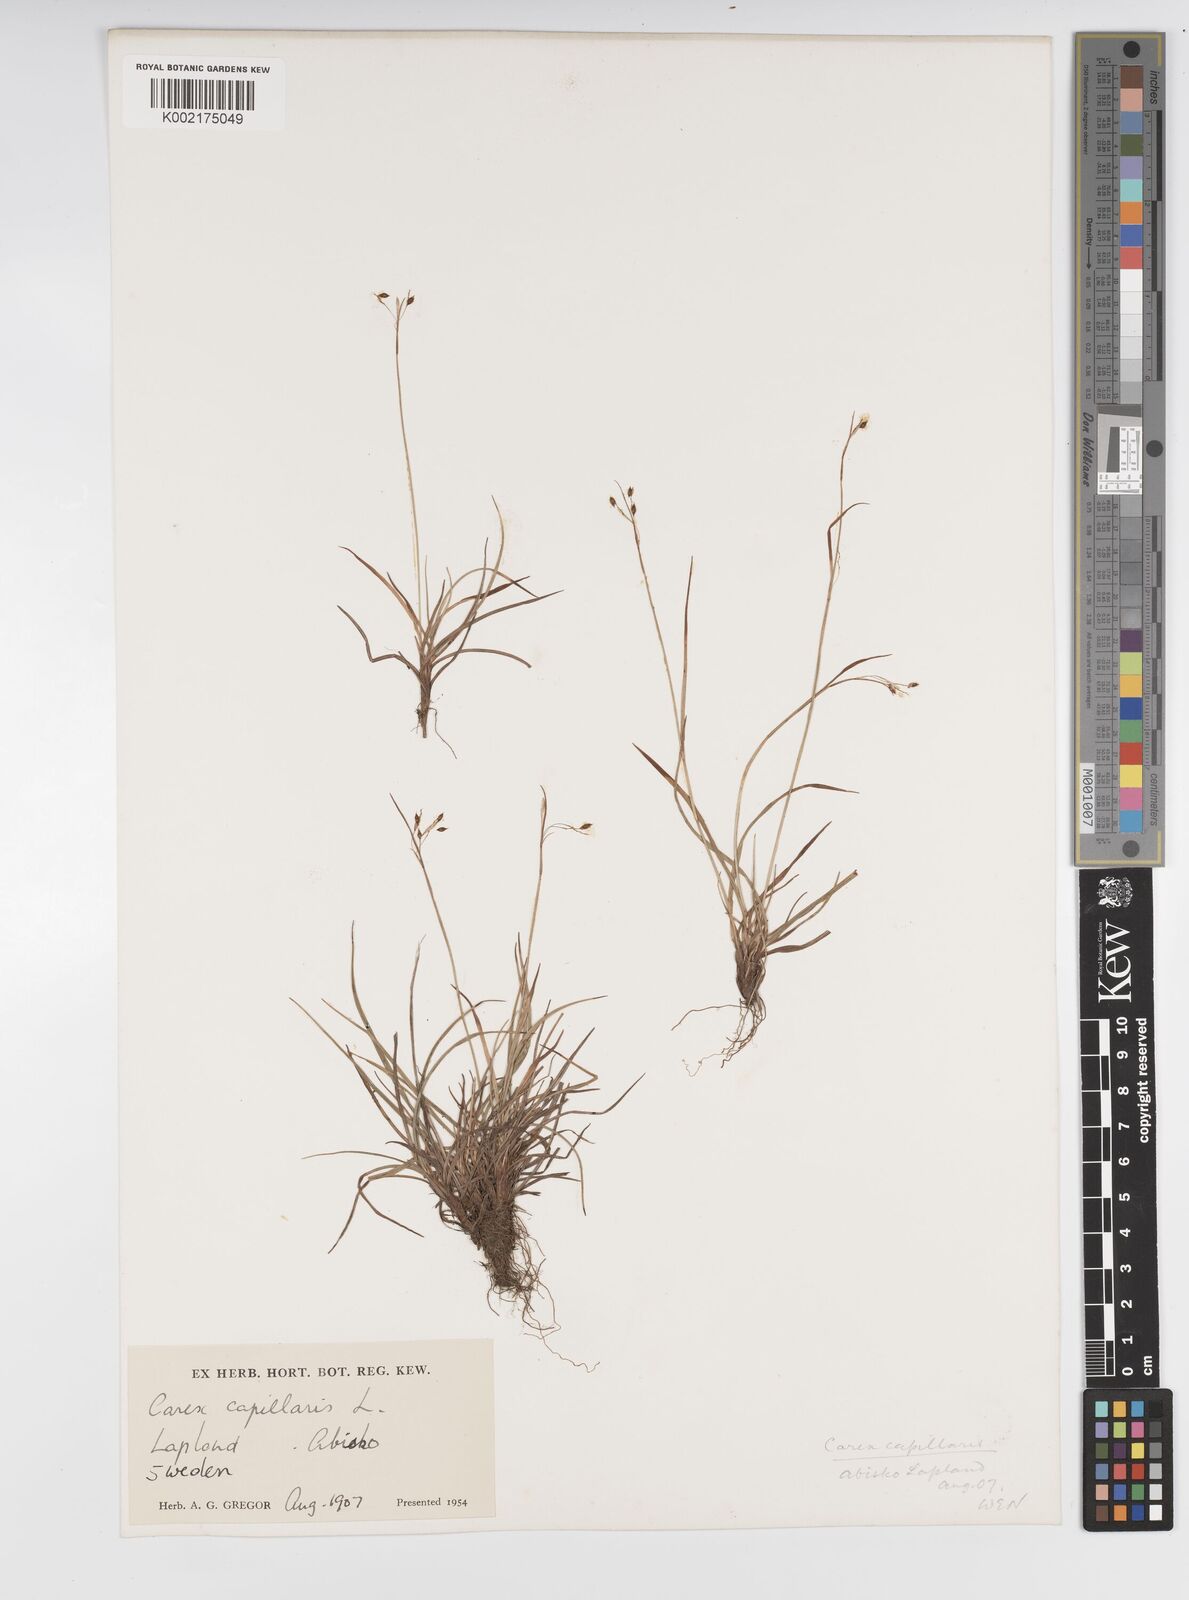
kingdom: Plantae
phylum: Tracheophyta
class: Liliopsida
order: Poales
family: Cyperaceae
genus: Carex
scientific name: Carex capillaris
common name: Hair sedge
